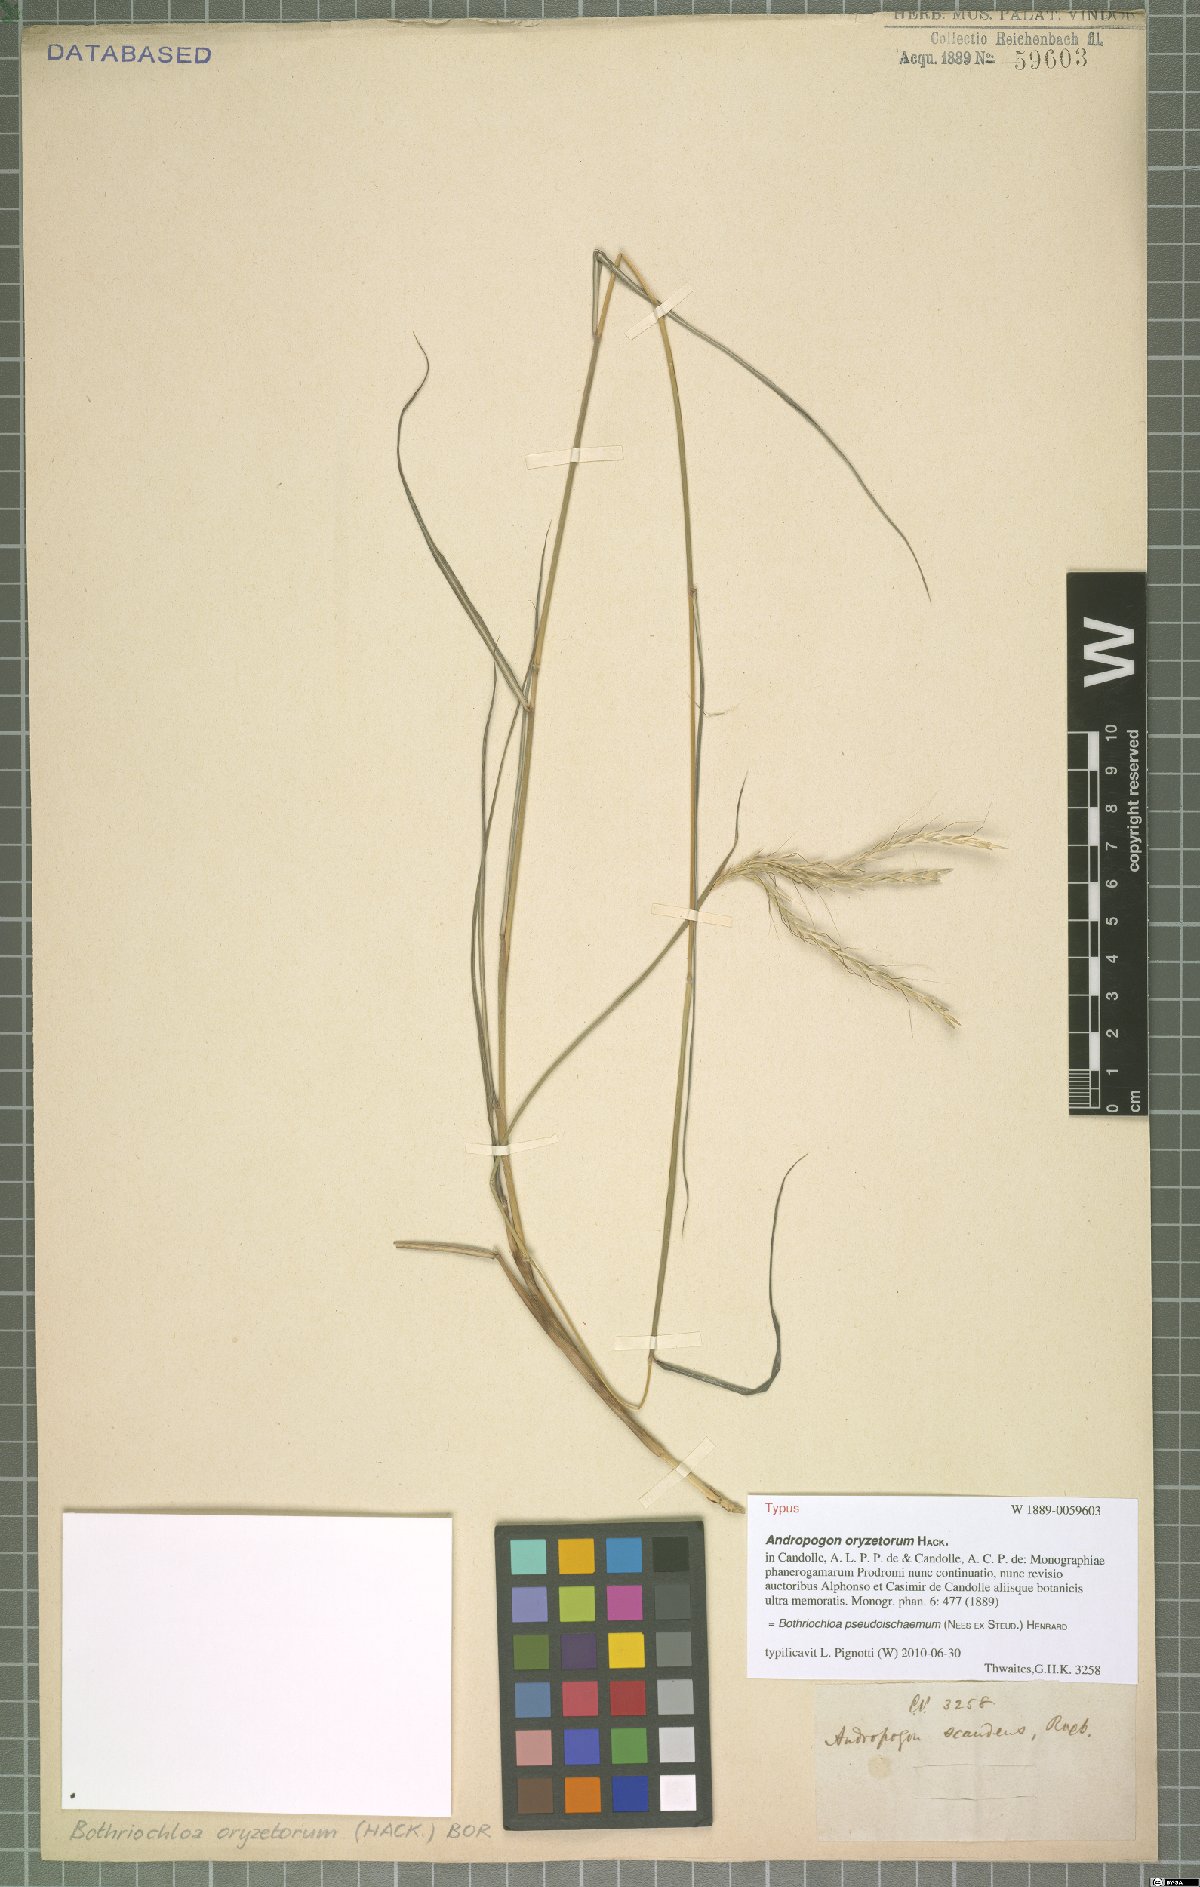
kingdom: Plantae
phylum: Tracheophyta
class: Liliopsida
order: Poales
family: Poaceae
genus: Bothriochloa
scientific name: Bothriochloa pseudoischaemum
